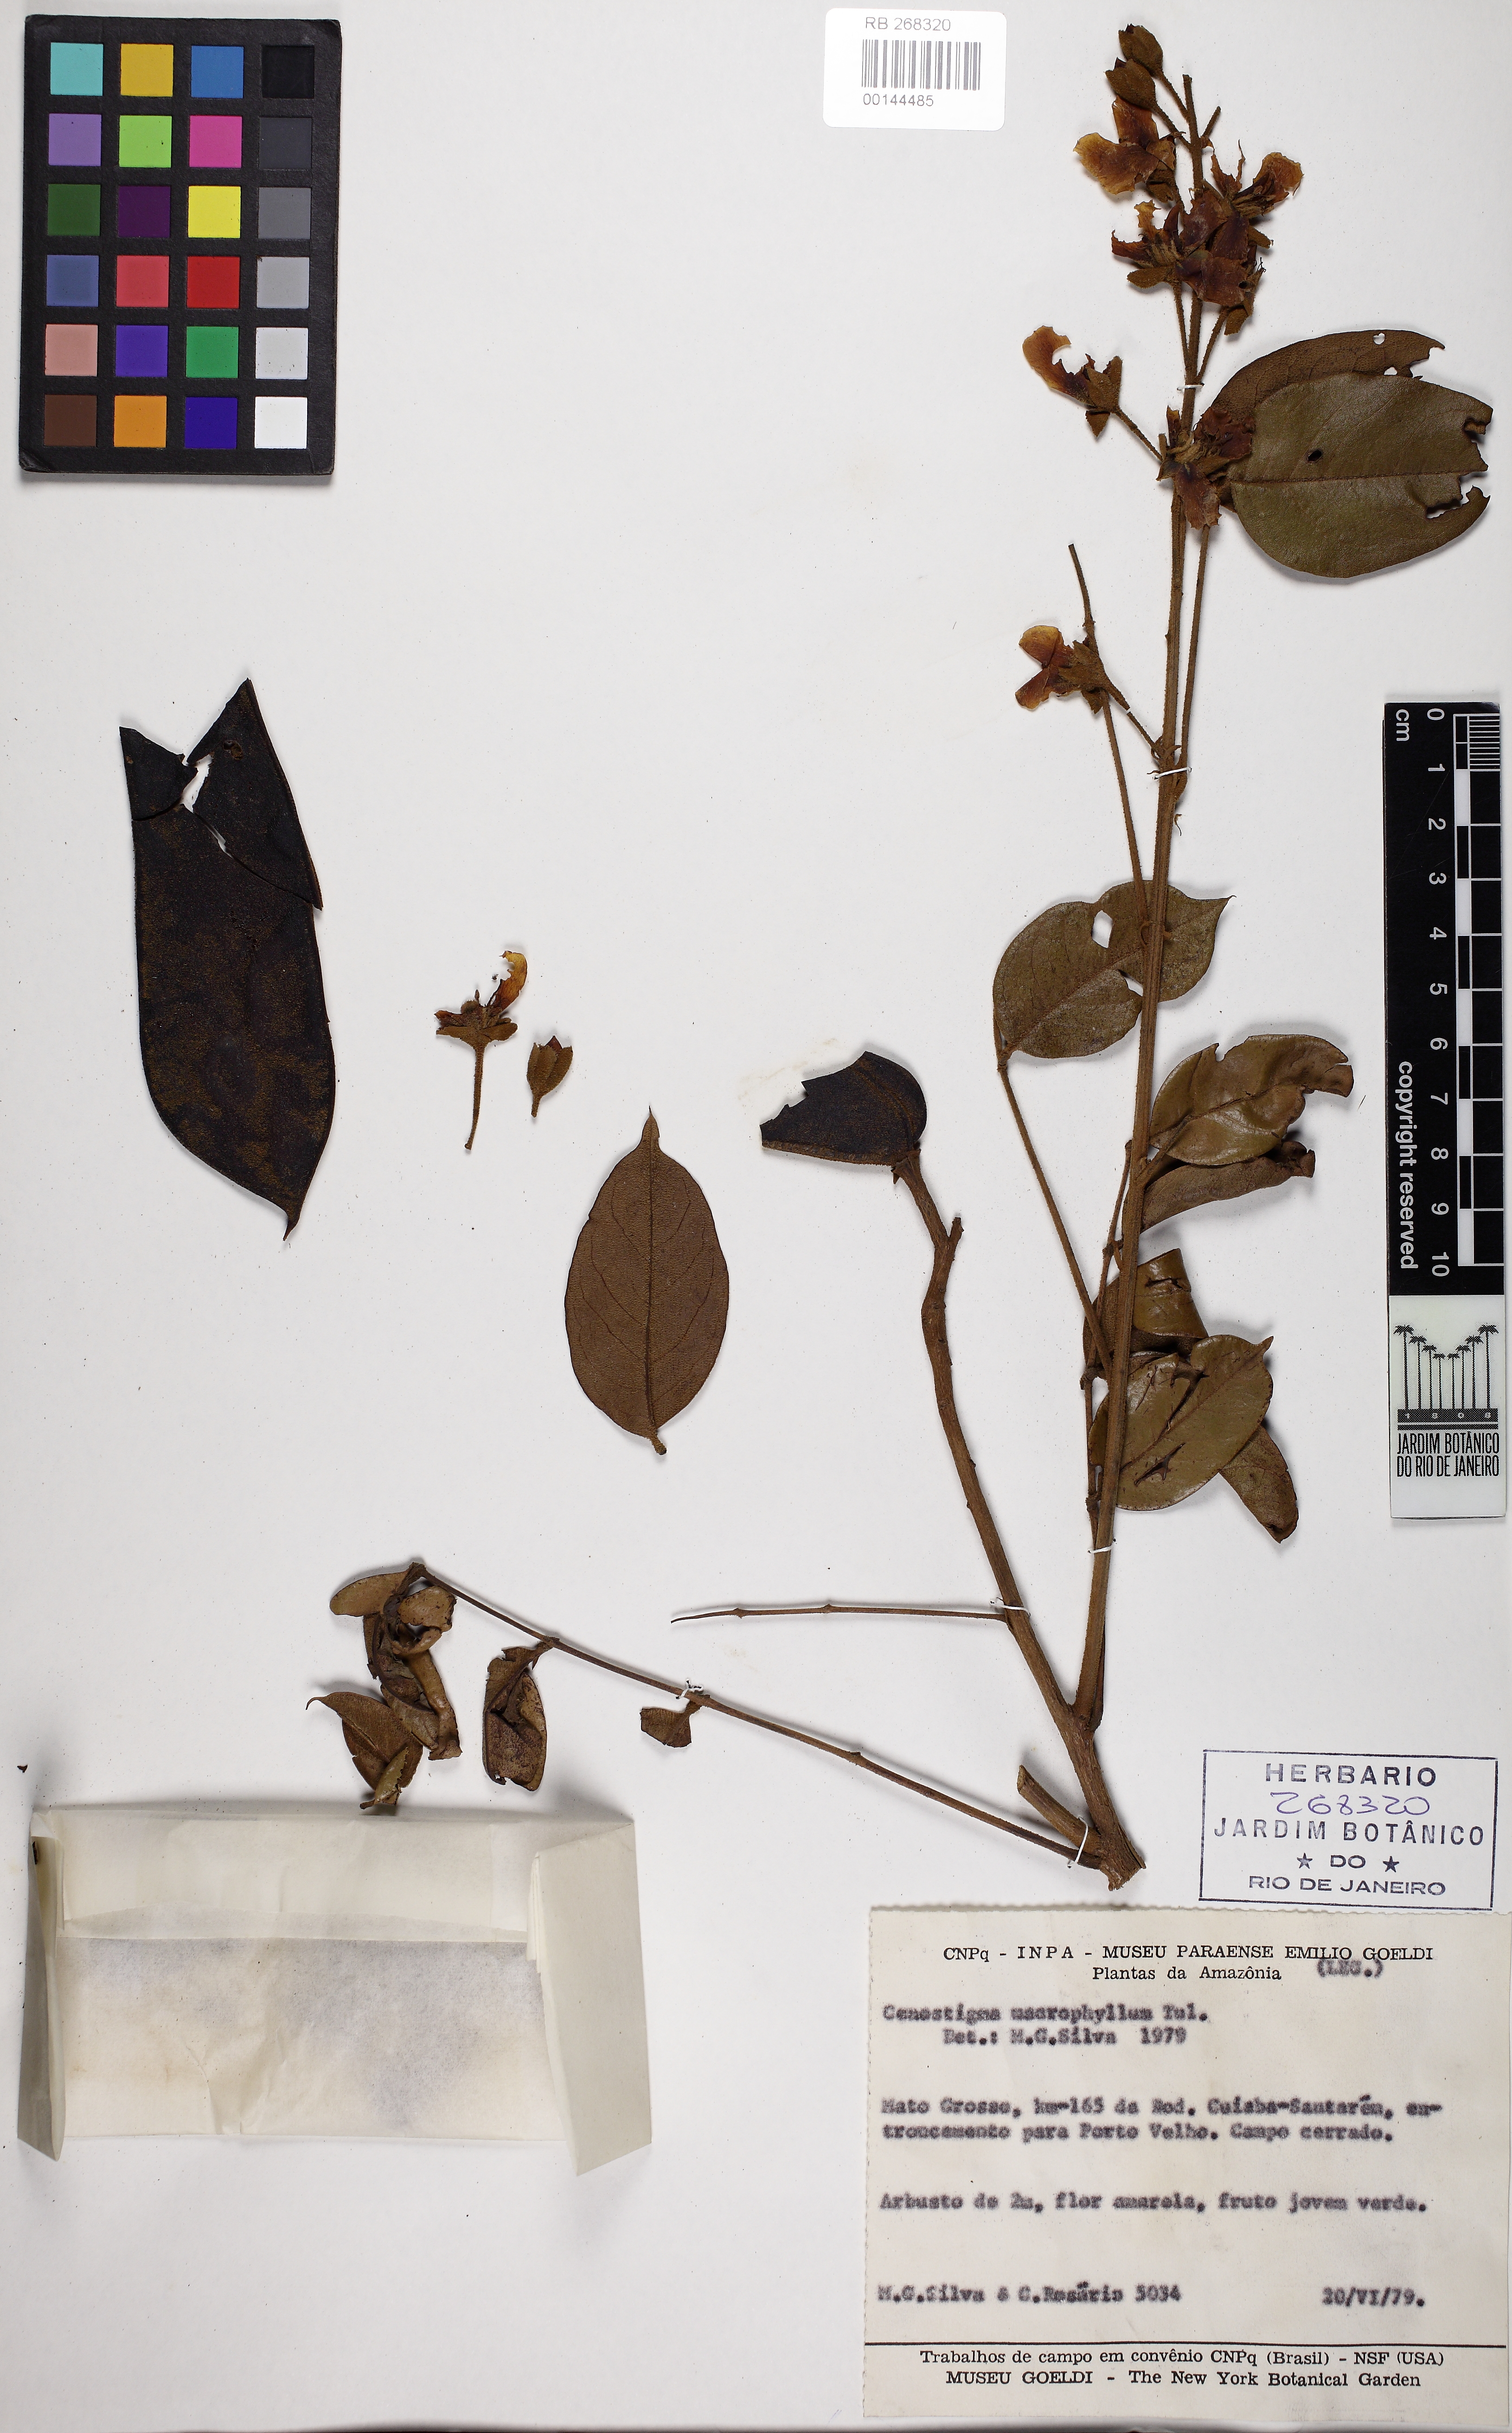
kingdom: Plantae
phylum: Tracheophyta
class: Magnoliopsida
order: Fabales
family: Fabaceae
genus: Cenostigma
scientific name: Cenostigma macrophyllum
